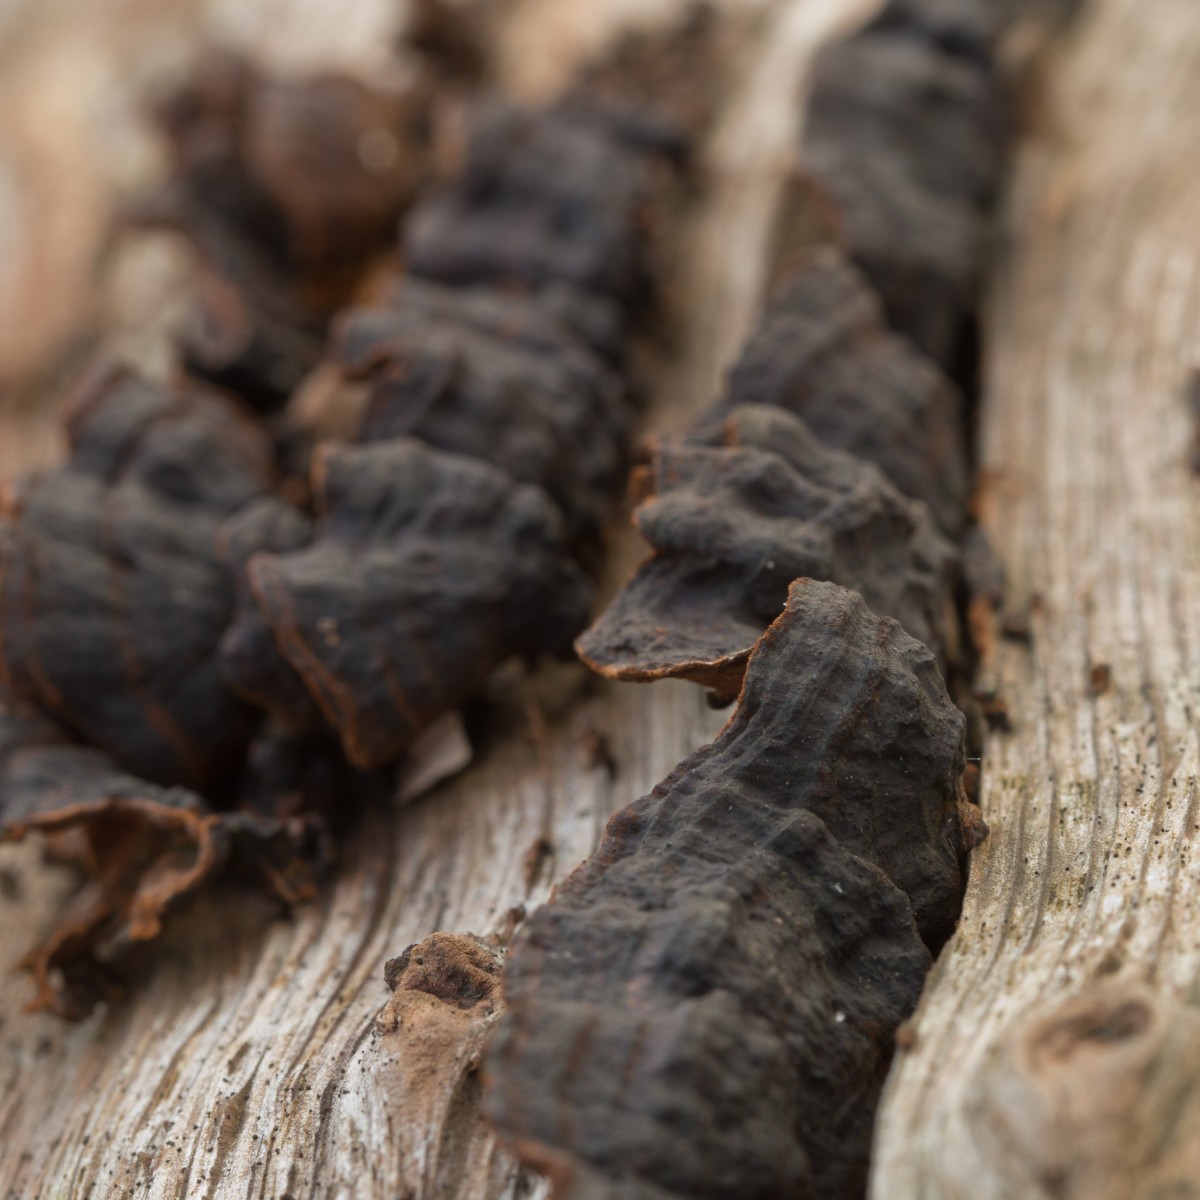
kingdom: Fungi
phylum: Basidiomycota
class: Agaricomycetes
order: Hymenochaetales
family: Hymenochaetaceae
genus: Hymenochaete
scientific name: Hymenochaete rubiginosa
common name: stiv ruslædersvamp
